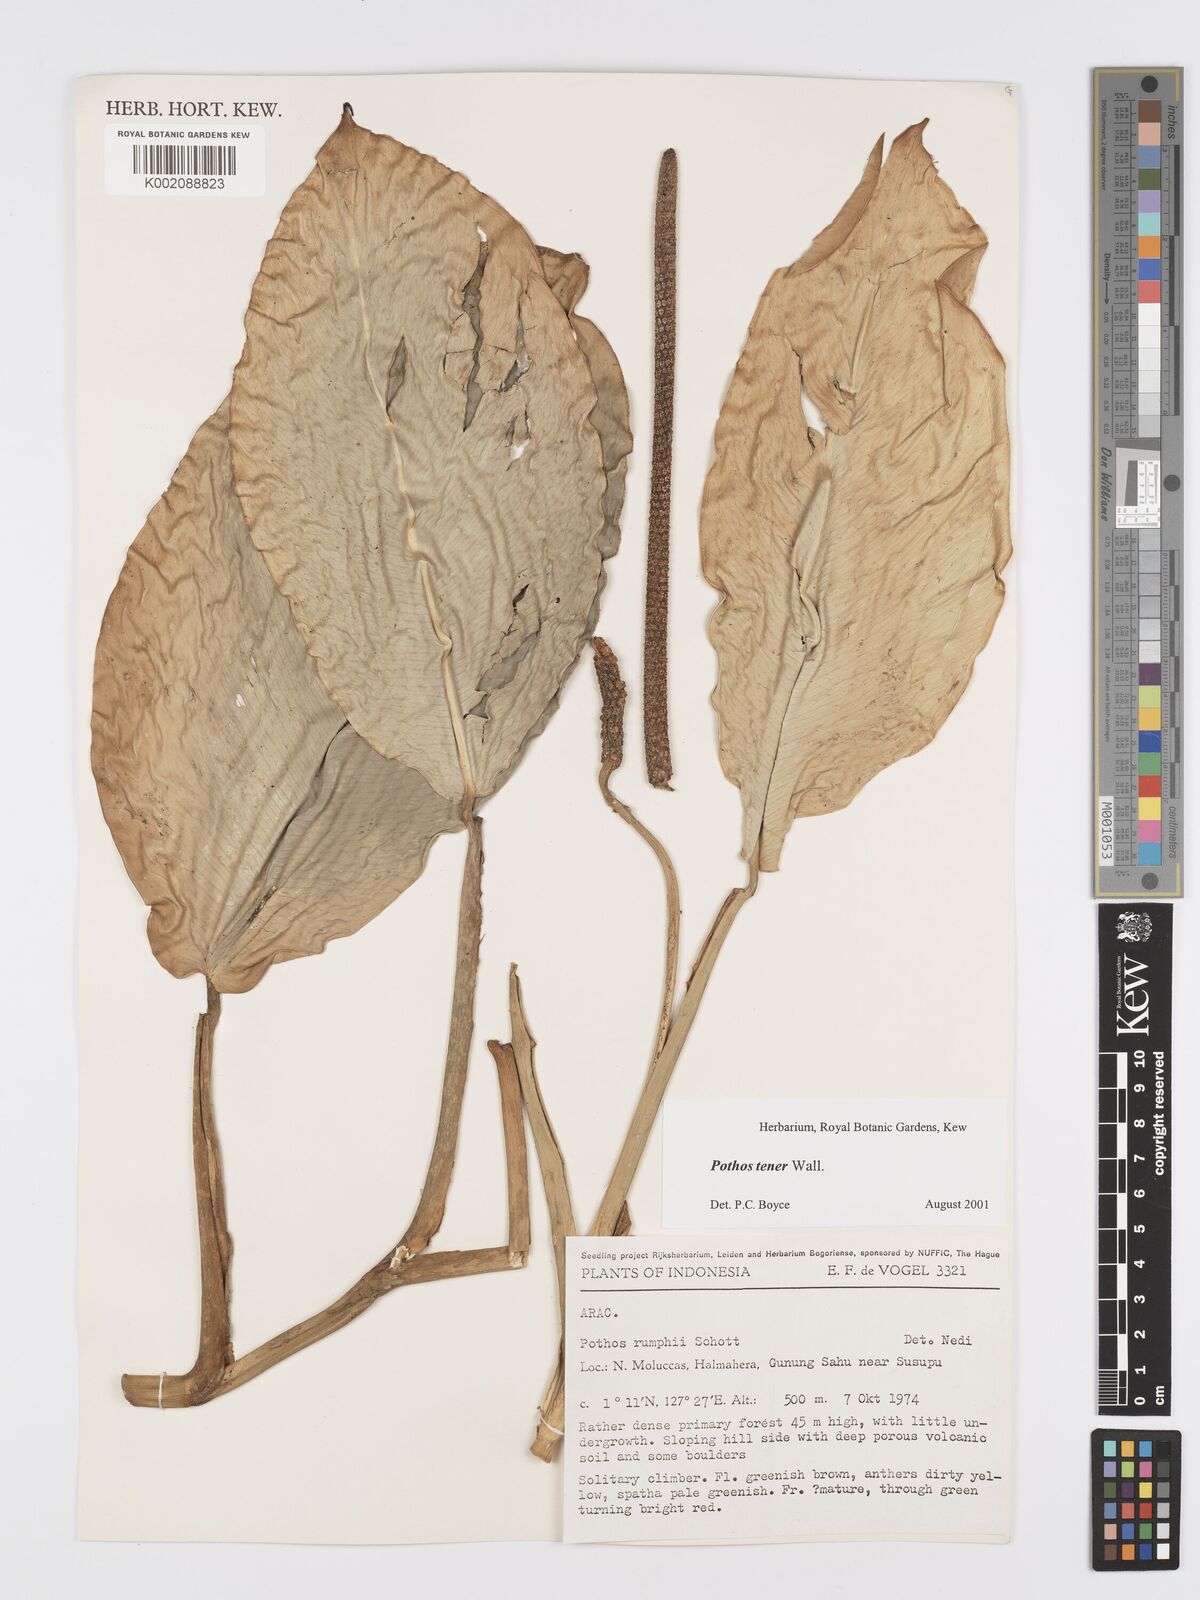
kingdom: Plantae
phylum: Tracheophyta
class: Liliopsida
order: Alismatales
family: Araceae
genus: Pothos
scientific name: Pothos tener
